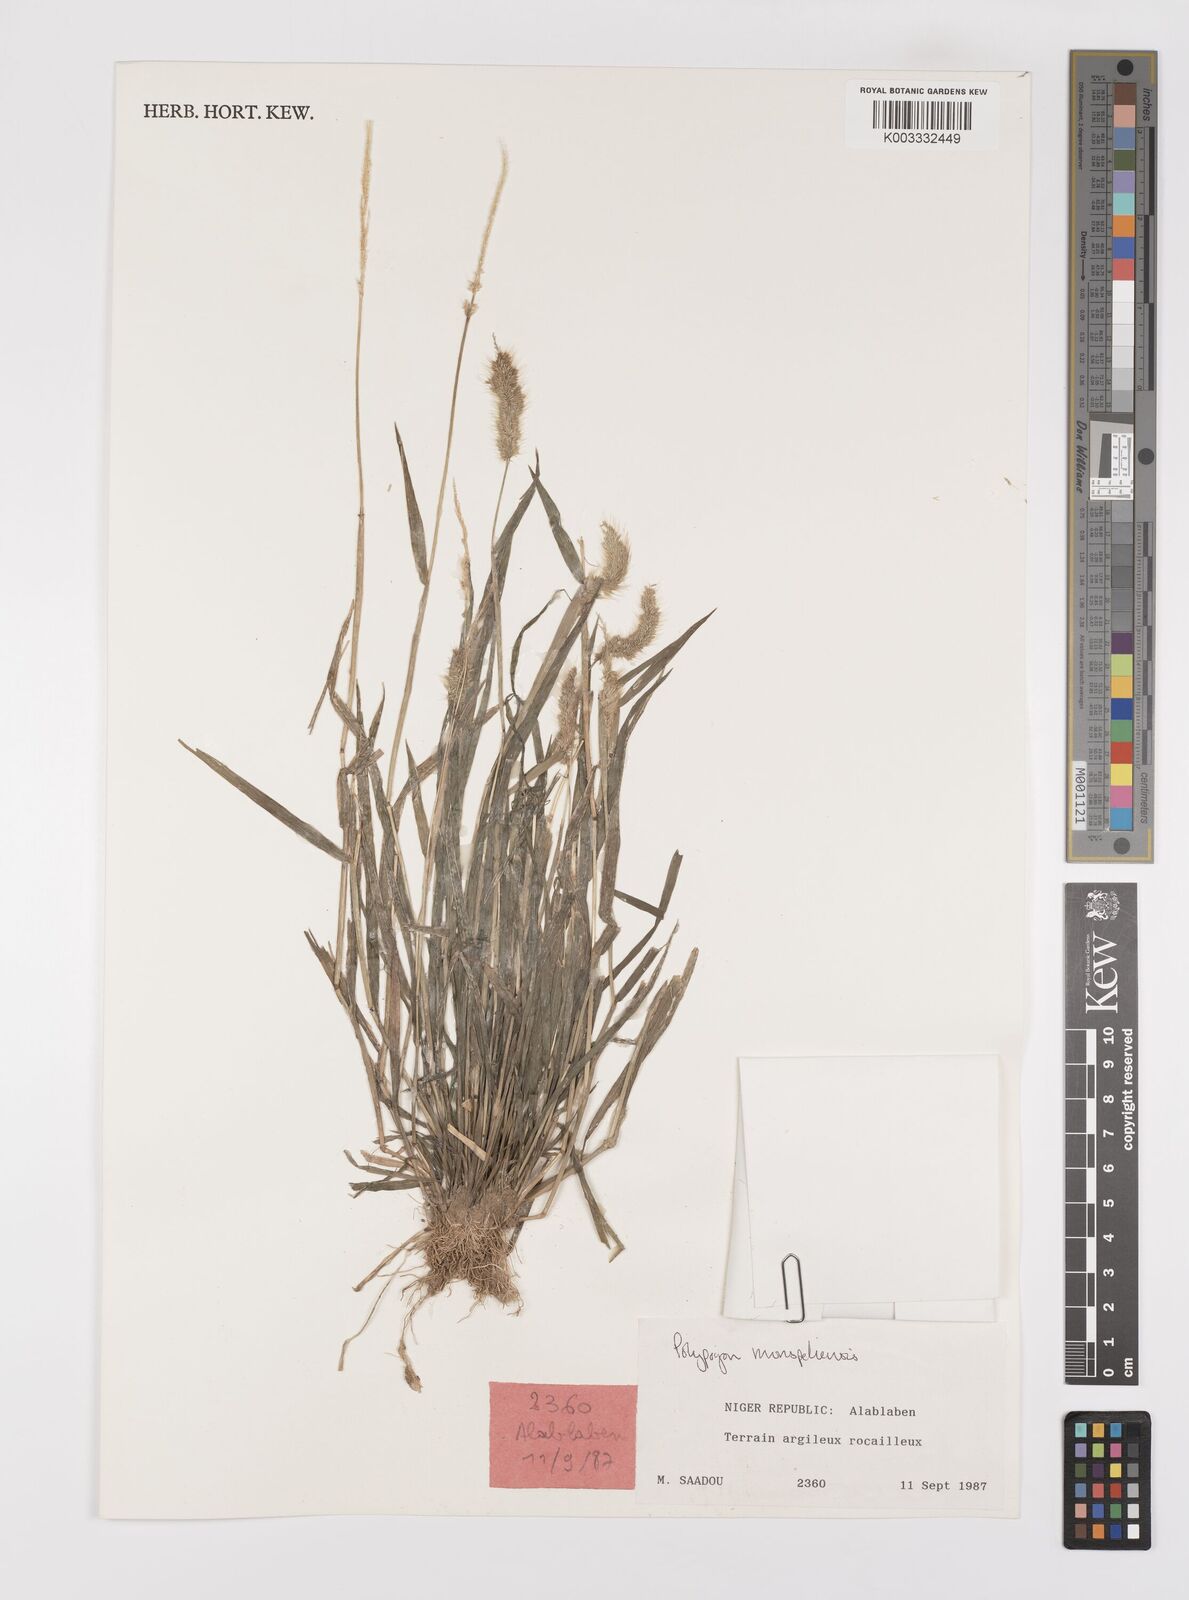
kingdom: Plantae
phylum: Tracheophyta
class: Liliopsida
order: Poales
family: Poaceae
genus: Polypogon
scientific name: Polypogon monspeliensis
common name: Annual rabbitsfoot grass
